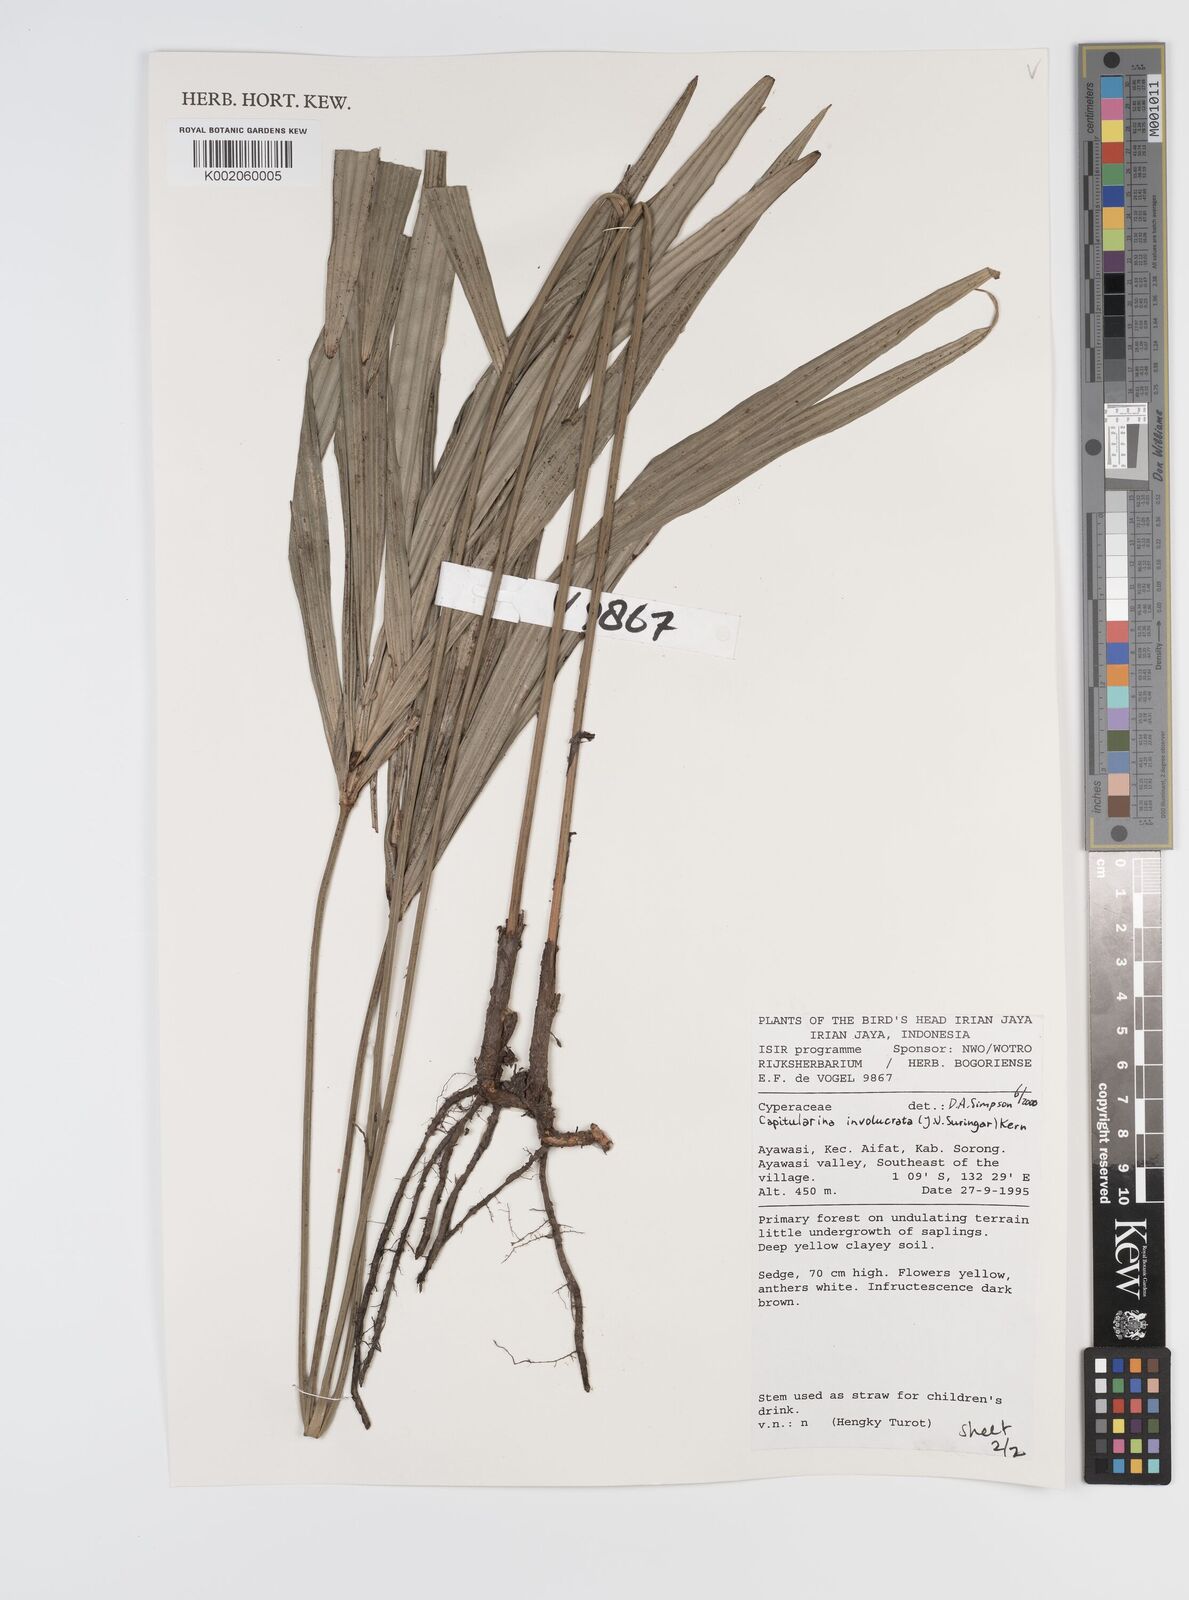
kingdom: Plantae
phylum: Tracheophyta
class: Liliopsida
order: Poales
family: Cyperaceae
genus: Capitularina
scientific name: Capitularina involucrata
